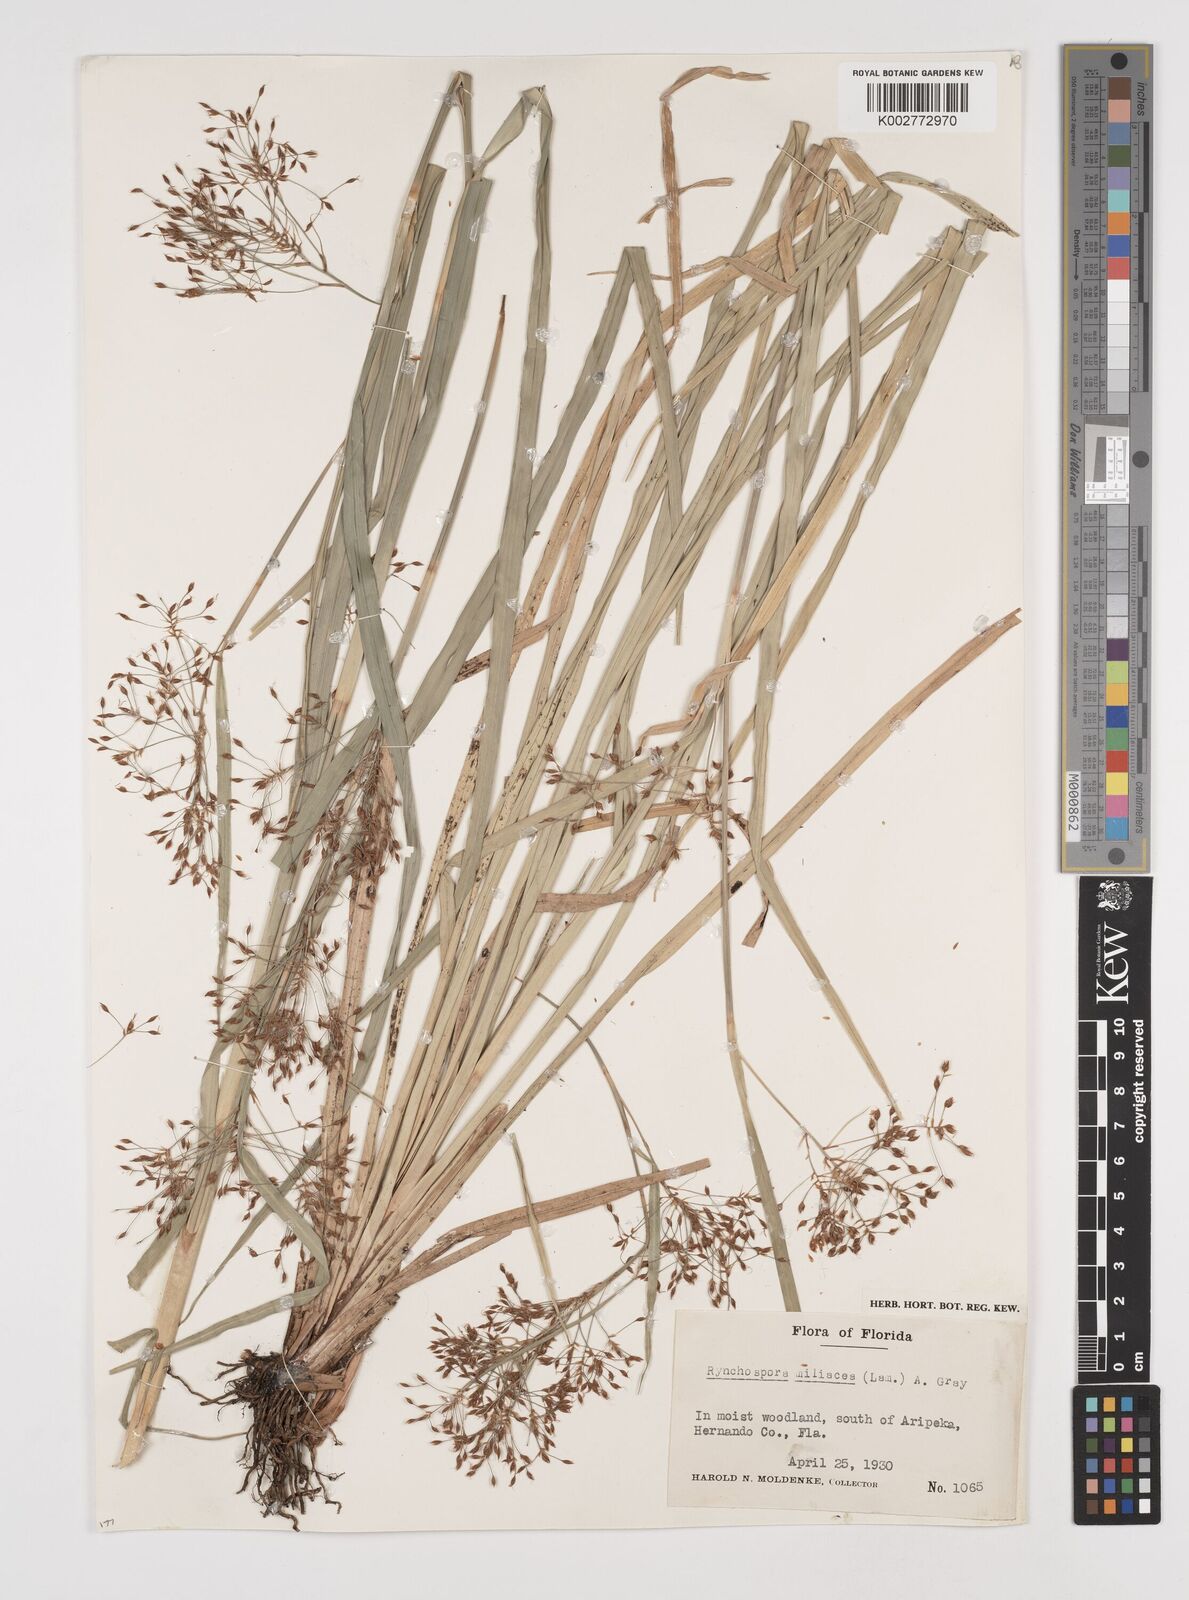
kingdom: Plantae
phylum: Tracheophyta
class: Liliopsida
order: Poales
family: Cyperaceae
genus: Rhynchospora
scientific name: Rhynchospora miliacea
